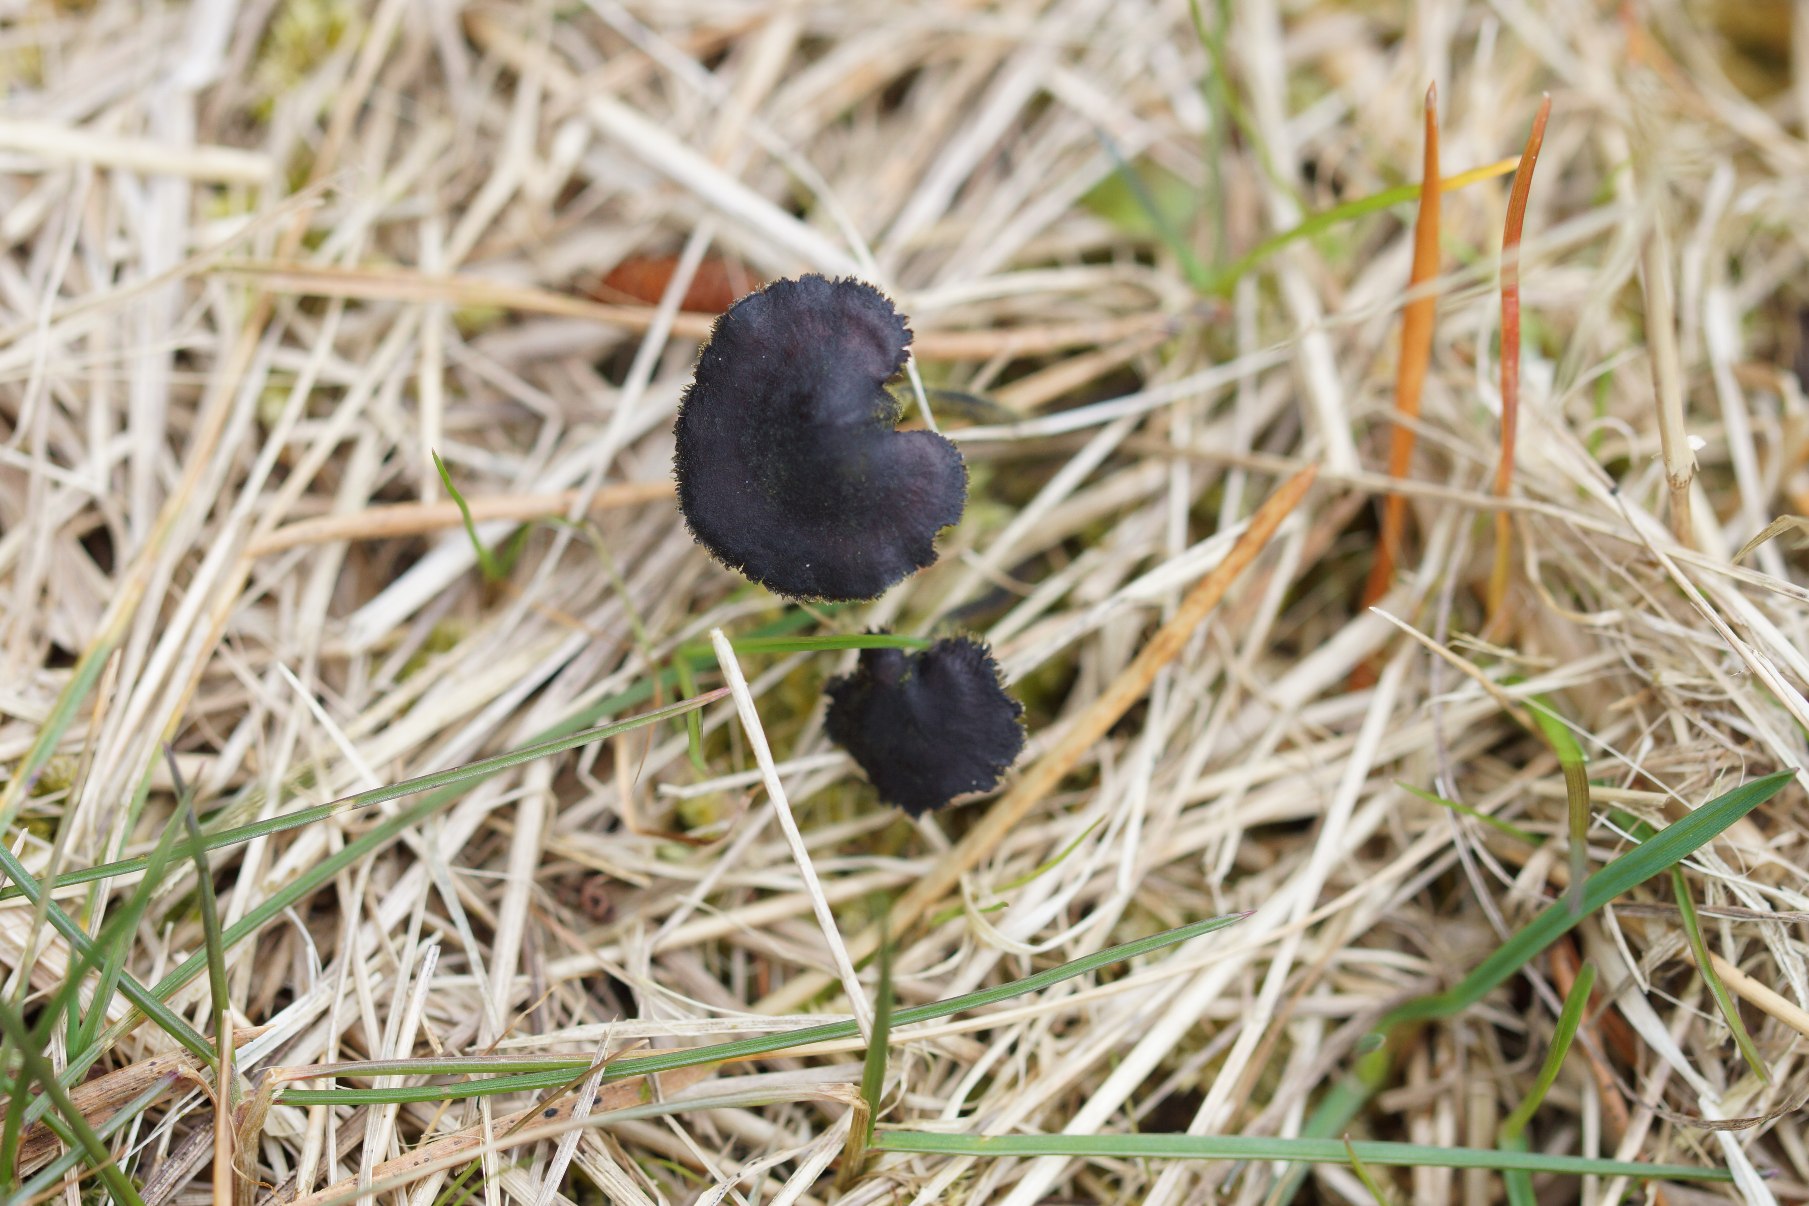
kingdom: Fungi
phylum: Basidiomycota
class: Agaricomycetes
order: Russulales
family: Auriscalpiaceae
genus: Auriscalpium
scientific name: Auriscalpium vulgare
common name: Koglepigsvamp
